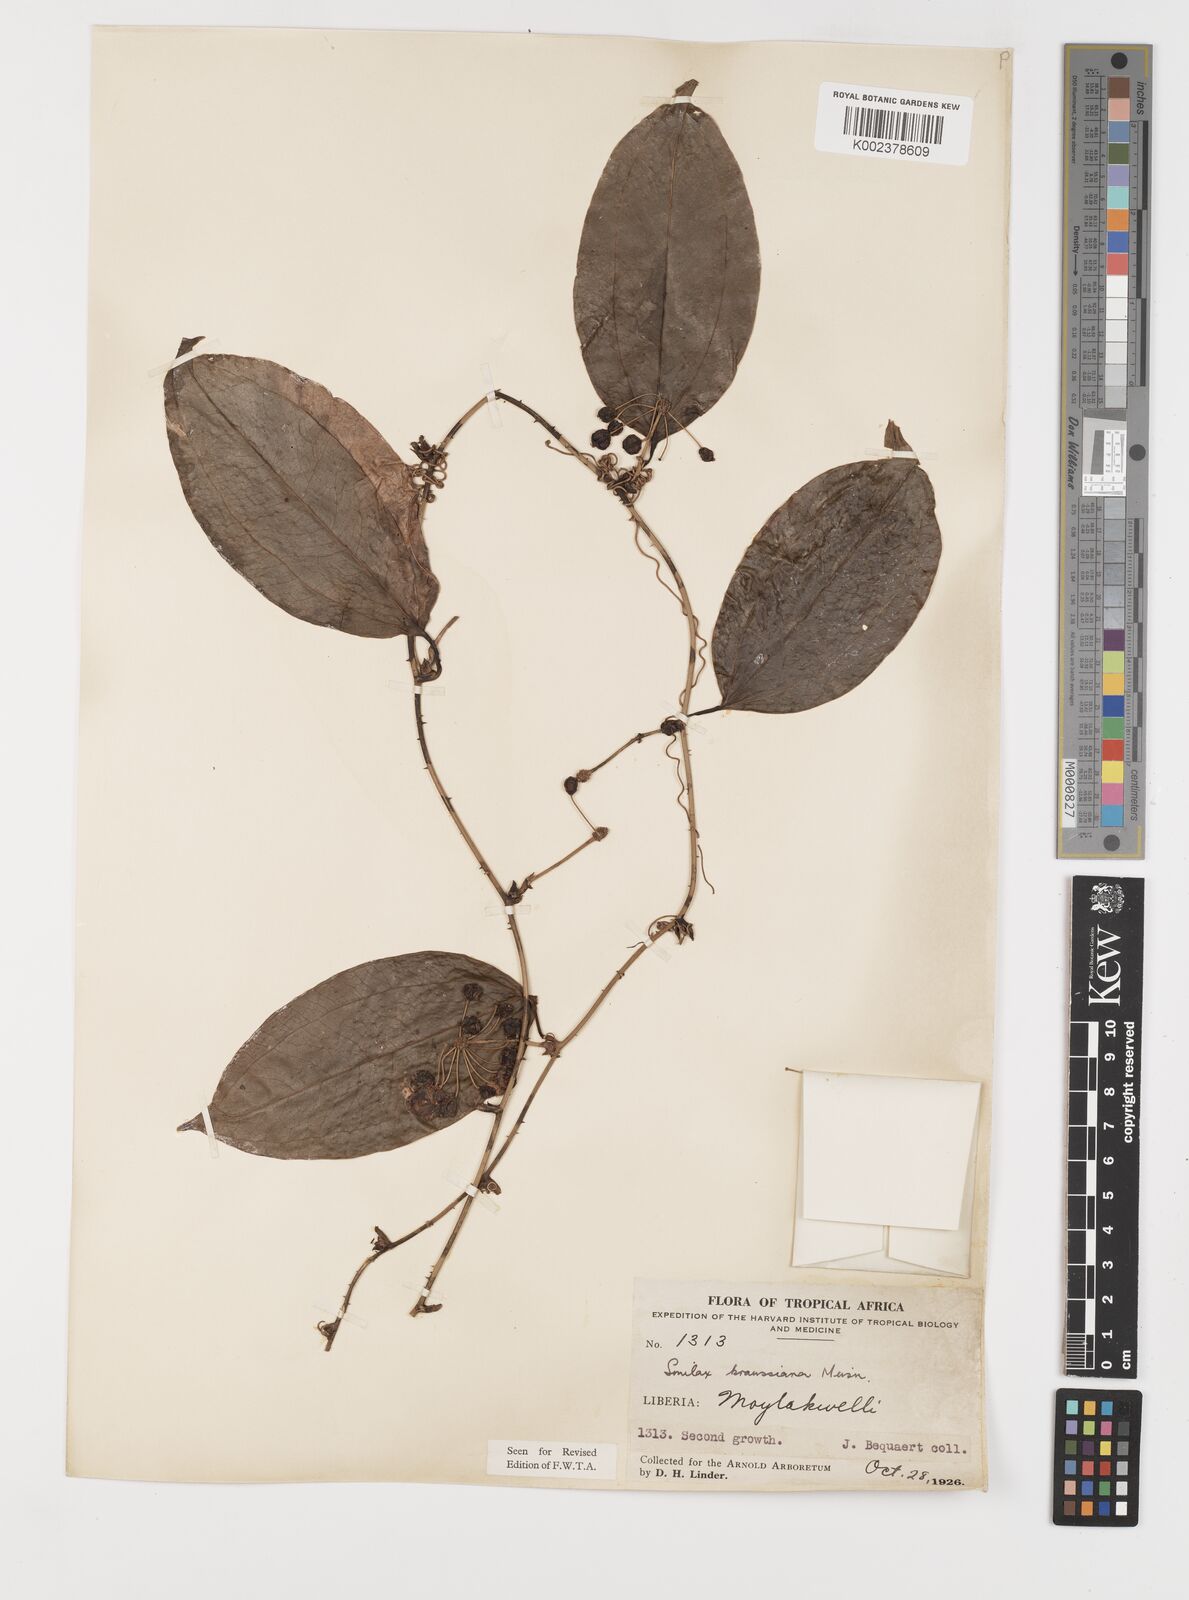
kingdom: Plantae
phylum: Tracheophyta
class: Liliopsida
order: Liliales
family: Smilacaceae
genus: Smilax
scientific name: Smilax anceps
